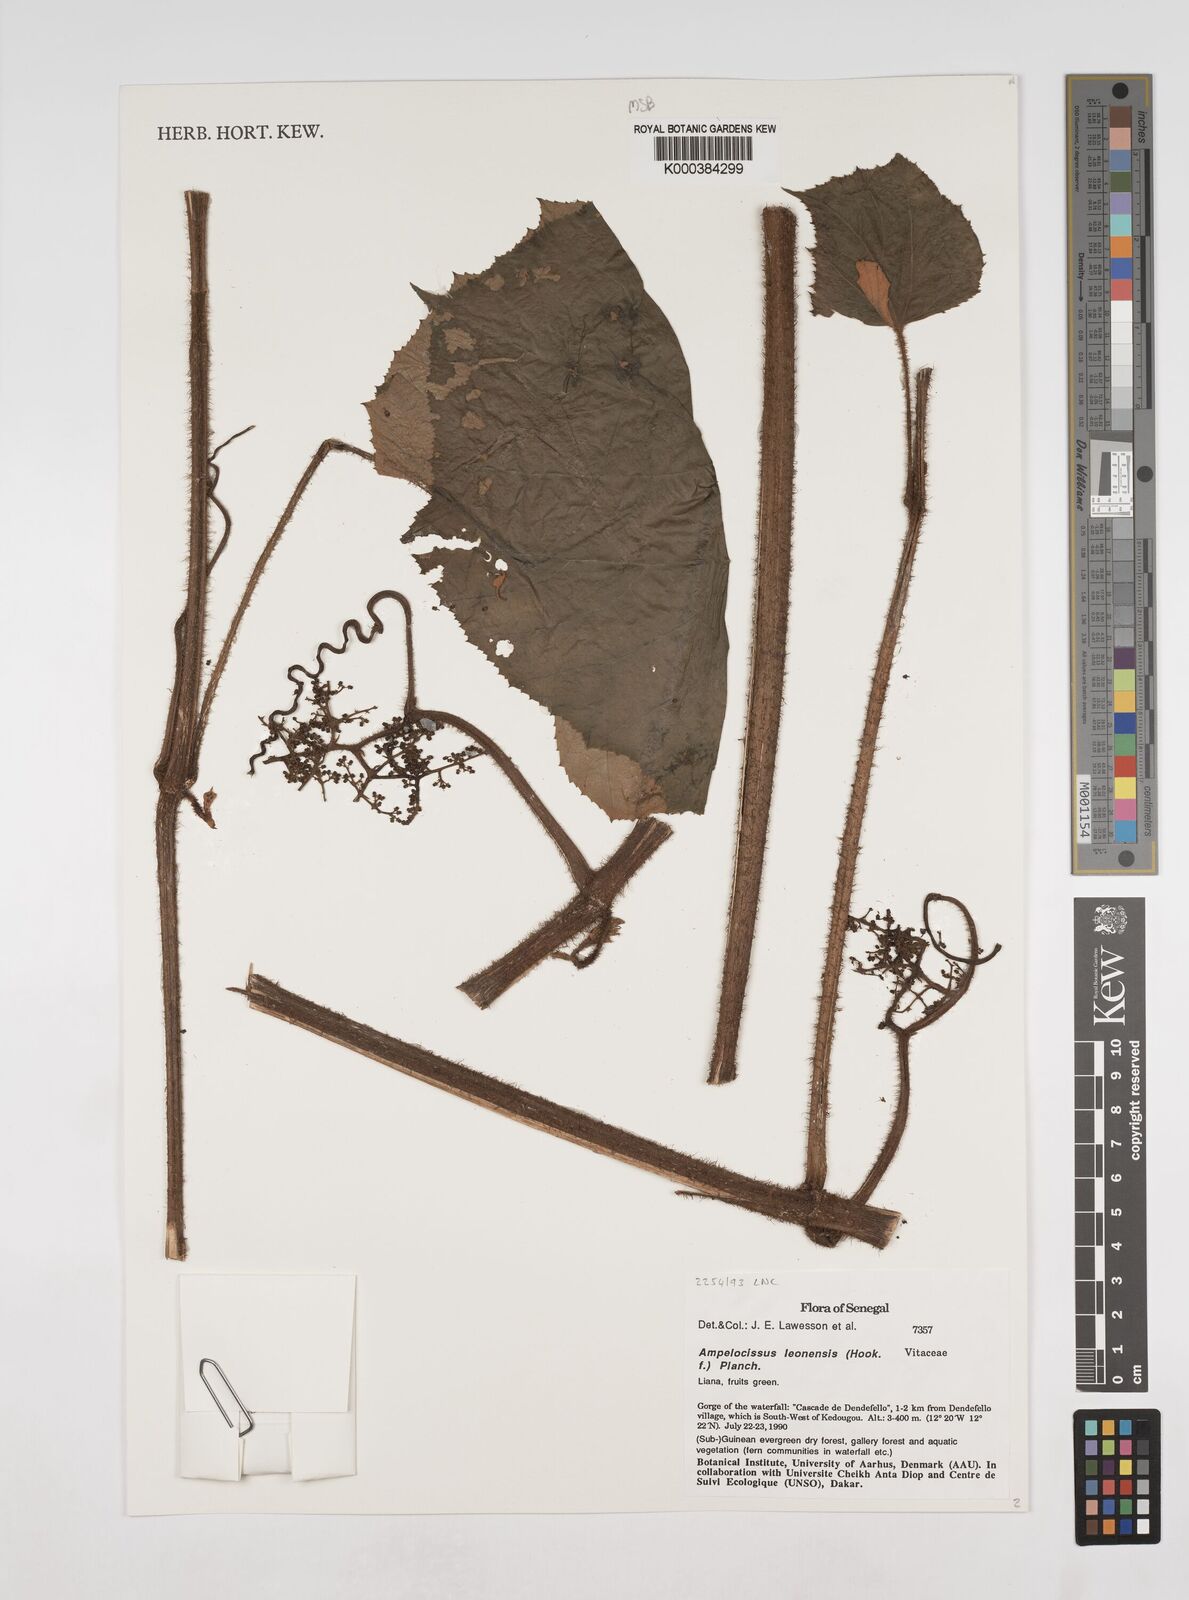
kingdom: Plantae
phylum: Tracheophyta
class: Magnoliopsida
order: Vitales
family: Vitaceae
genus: Ampelocissus
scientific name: Ampelocissus leonensis
